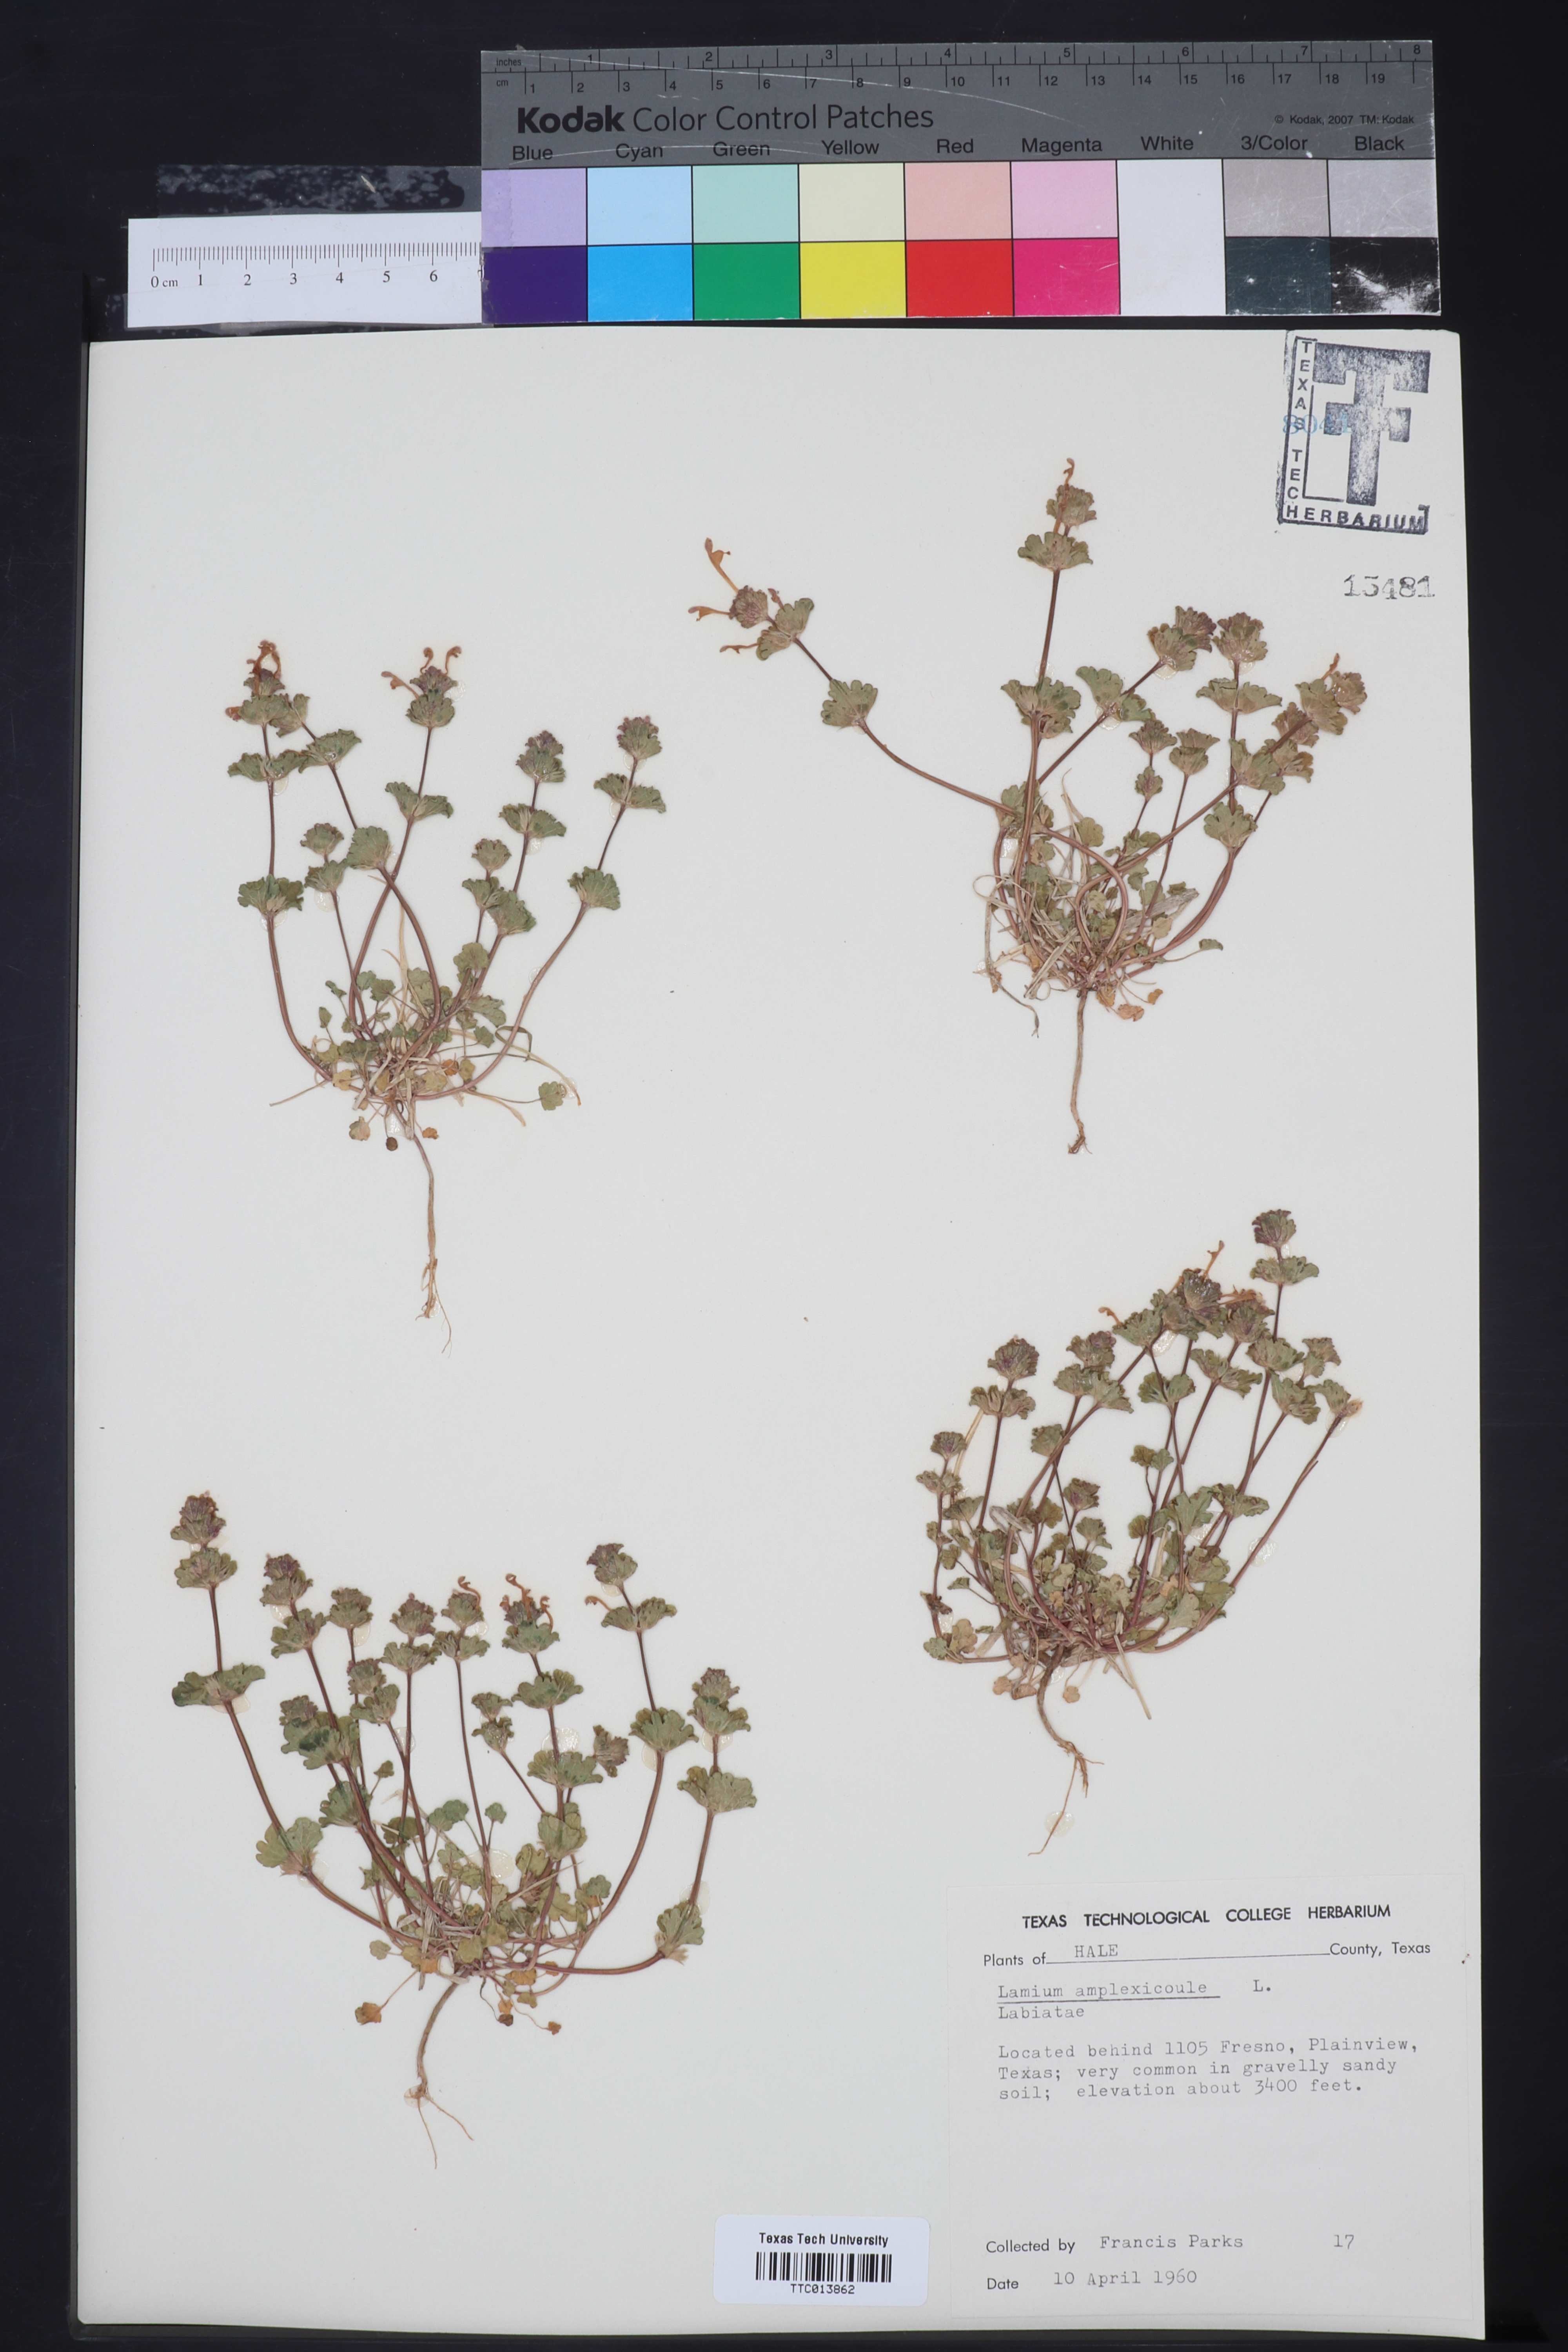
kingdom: Plantae
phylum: Tracheophyta
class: Magnoliopsida
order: Lamiales
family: Lamiaceae
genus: Lamium
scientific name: Lamium amplexicaule
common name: Henbit dead-nettle
